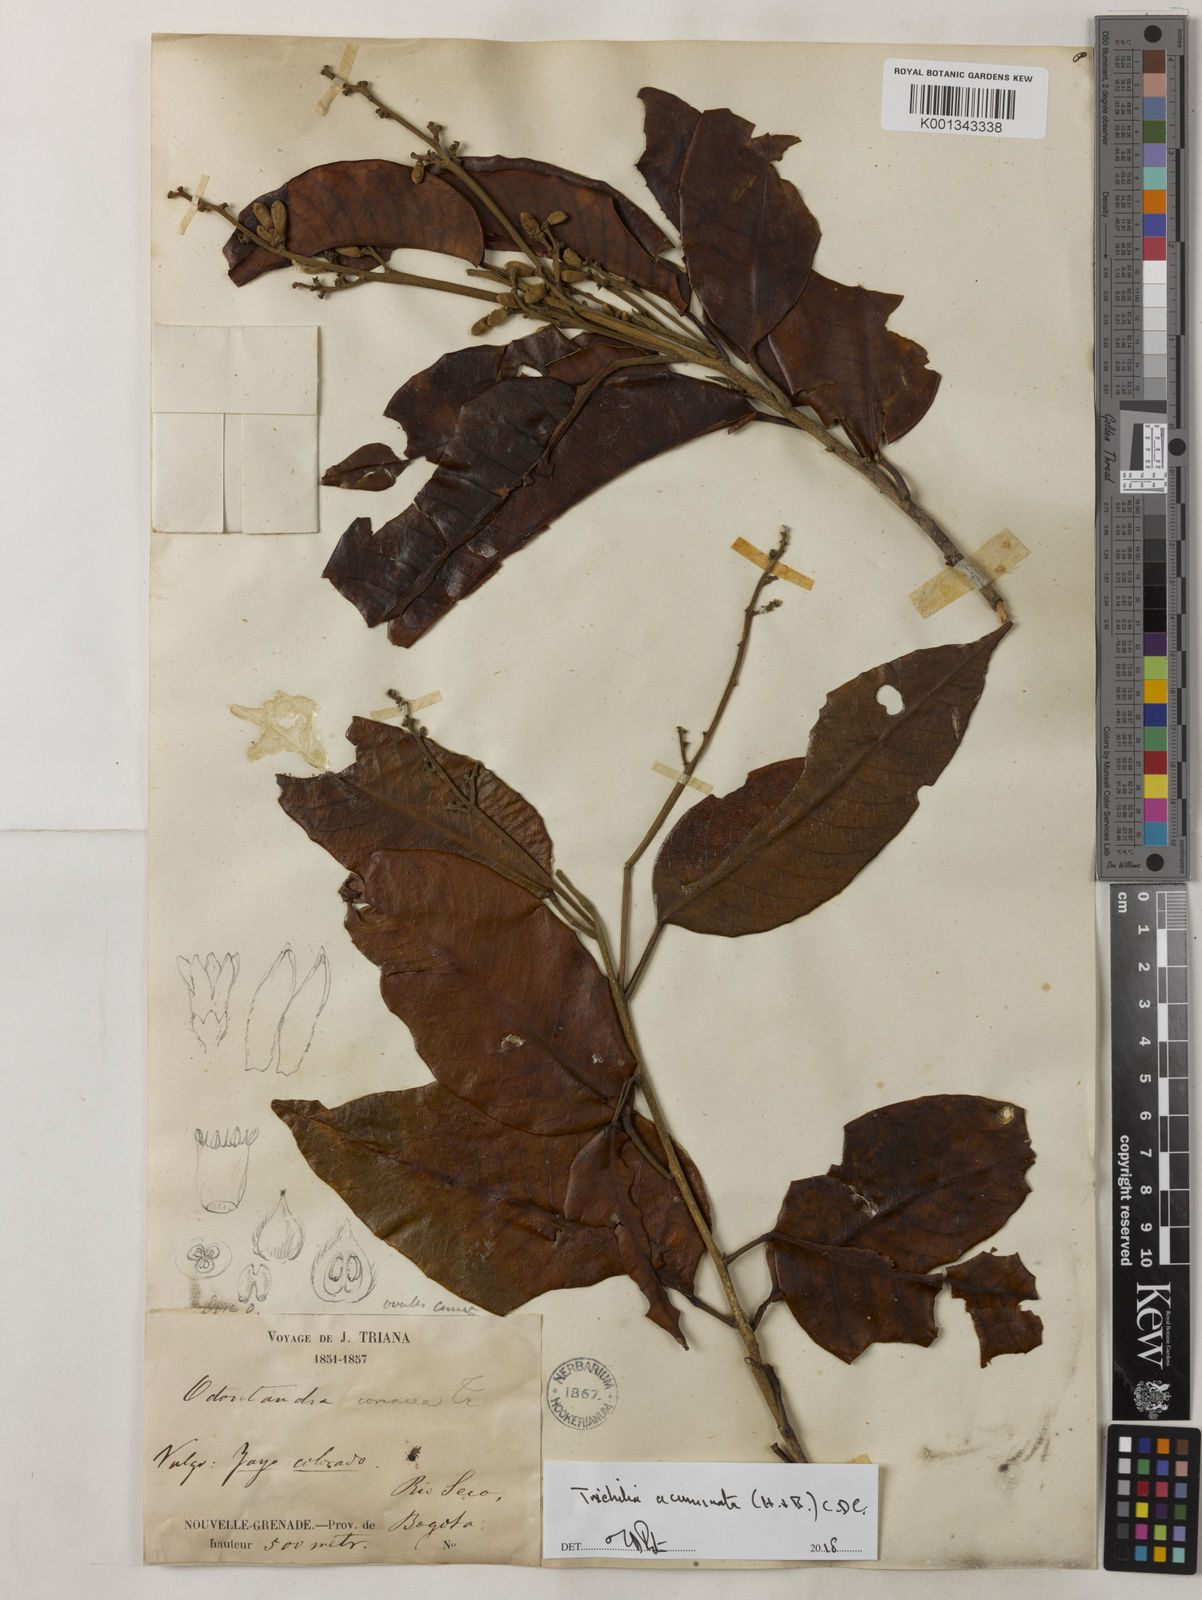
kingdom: Plantae
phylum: Tracheophyta
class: Magnoliopsida
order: Sapindales
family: Meliaceae
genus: Trichilia
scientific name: Trichilia acuminata
